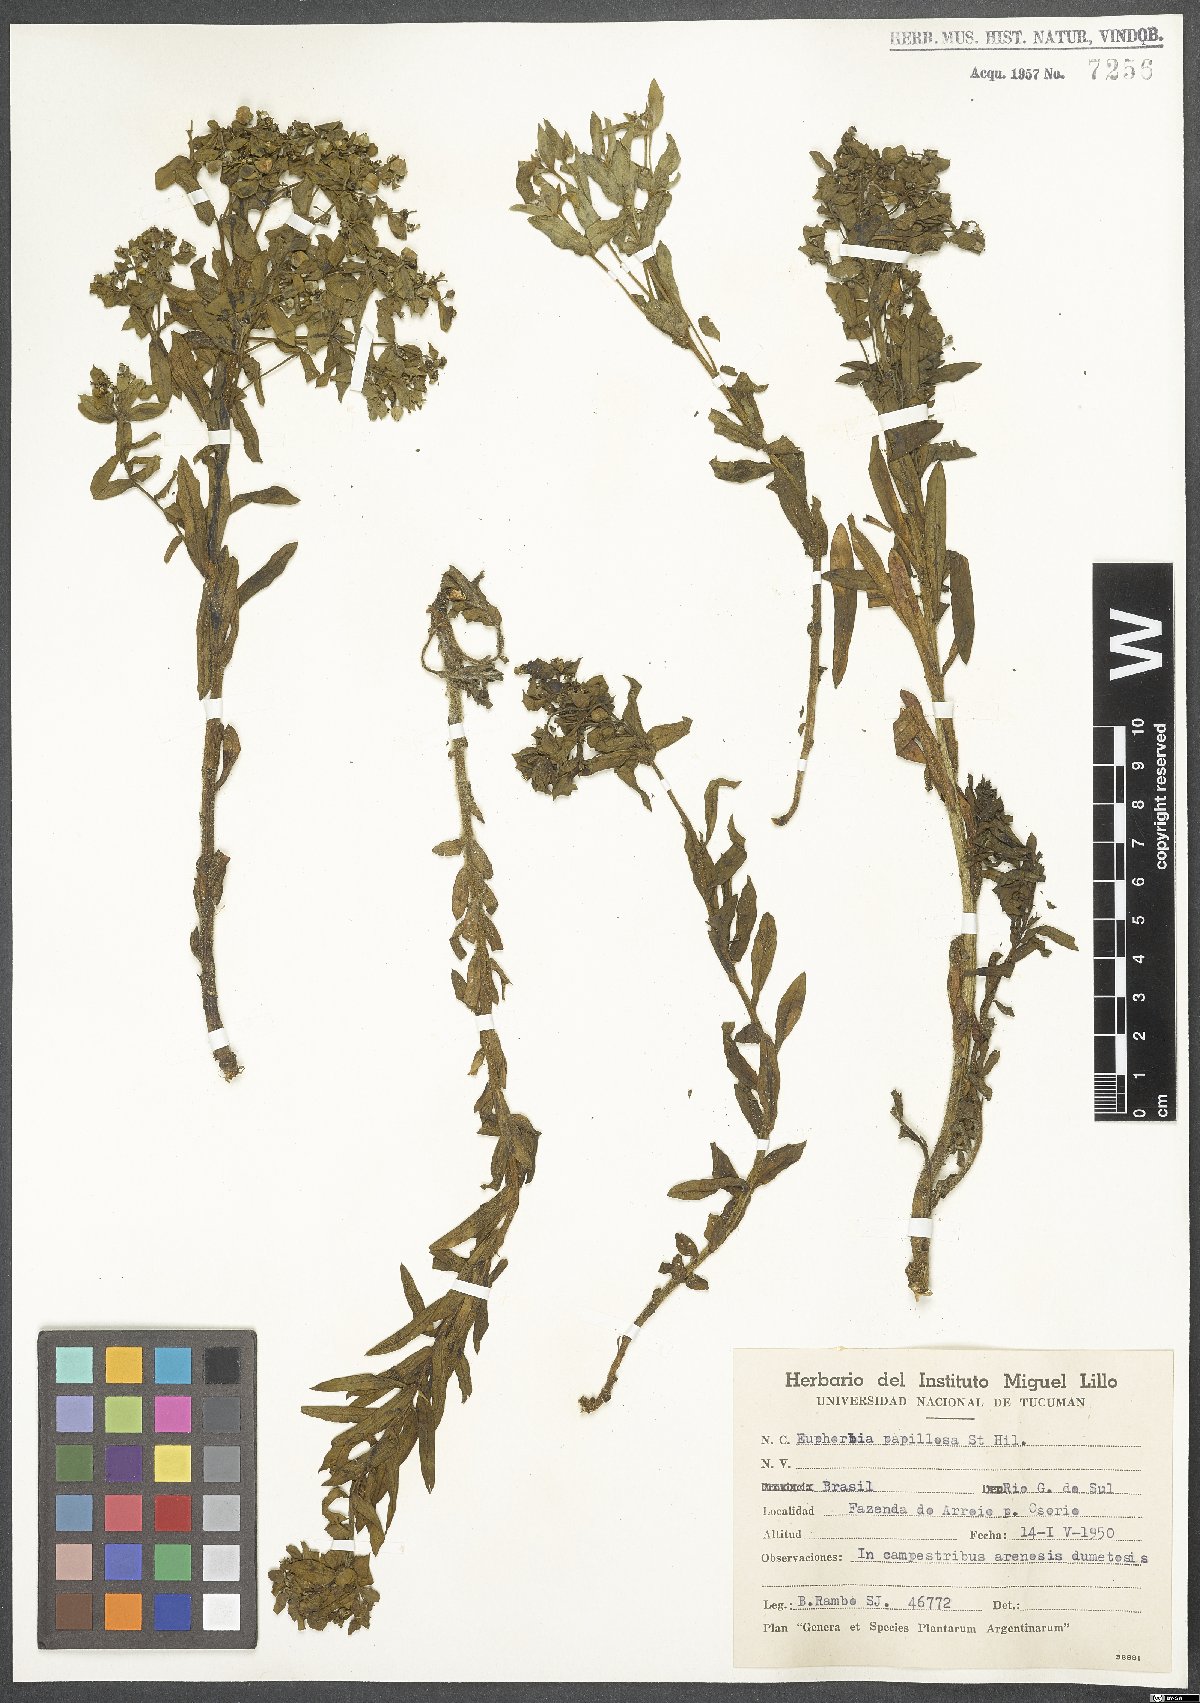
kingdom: Plantae
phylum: Tracheophyta
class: Magnoliopsida
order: Malpighiales
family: Euphorbiaceae
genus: Euphorbia
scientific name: Euphorbia papillosa
